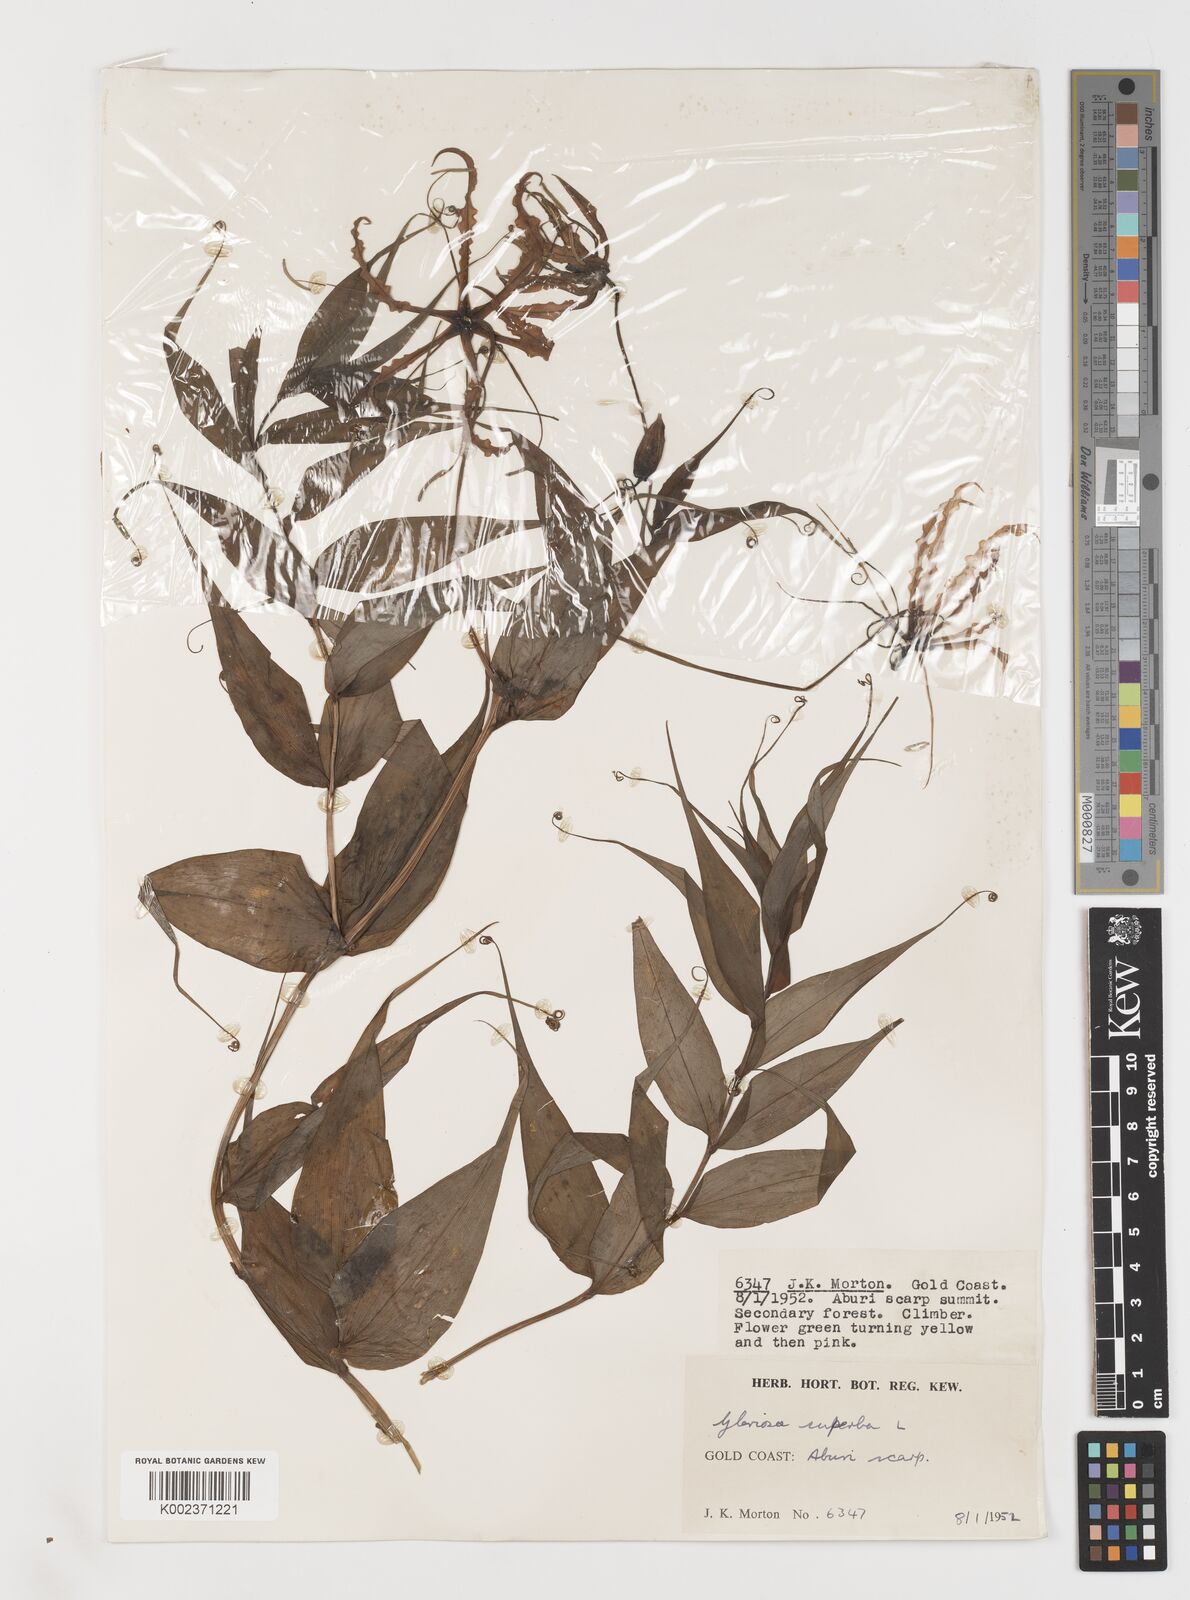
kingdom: Plantae
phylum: Tracheophyta
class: Liliopsida
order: Liliales
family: Colchicaceae
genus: Gloriosa
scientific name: Gloriosa superba
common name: Flame lily
